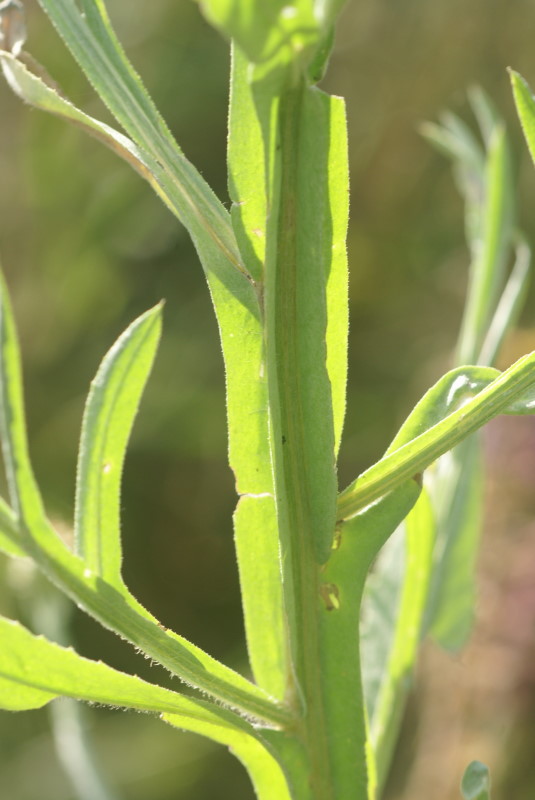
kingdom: Plantae
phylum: Tracheophyta
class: Magnoliopsida
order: Asterales
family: Asteraceae
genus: Centaurea
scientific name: Centaurea solstitialis
